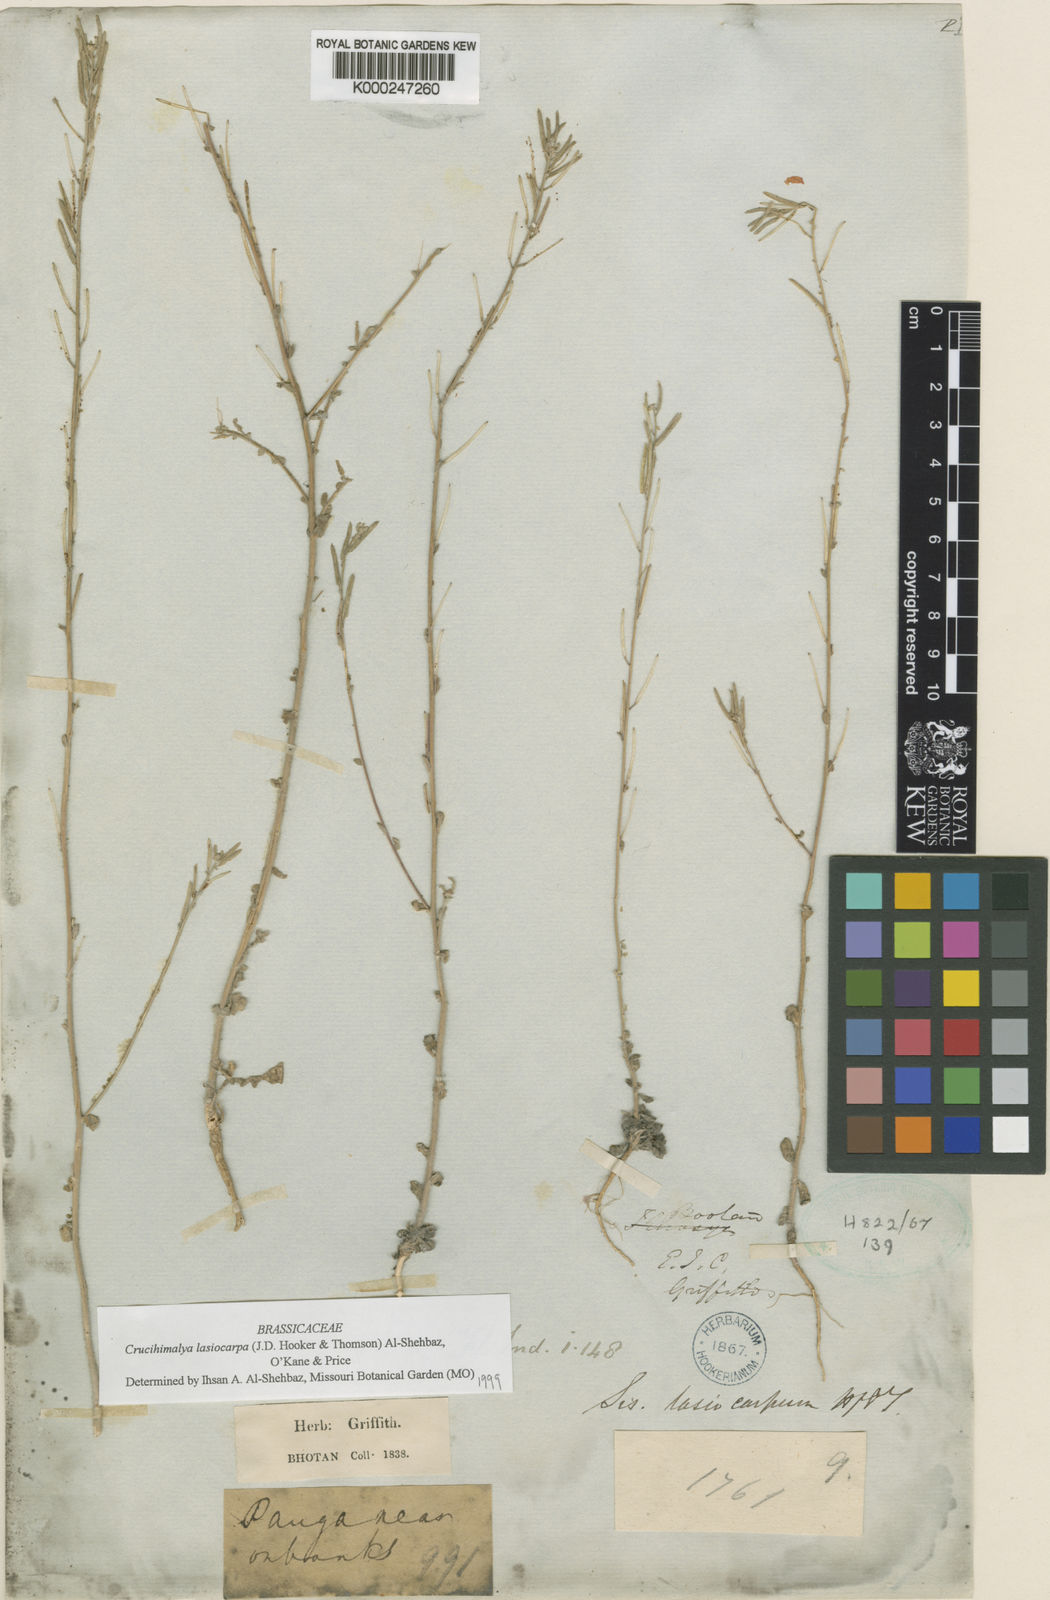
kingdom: Plantae
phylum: Tracheophyta
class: Magnoliopsida
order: Brassicales
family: Brassicaceae
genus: Crucihimalaya
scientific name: Crucihimalaya lasiocarpa
